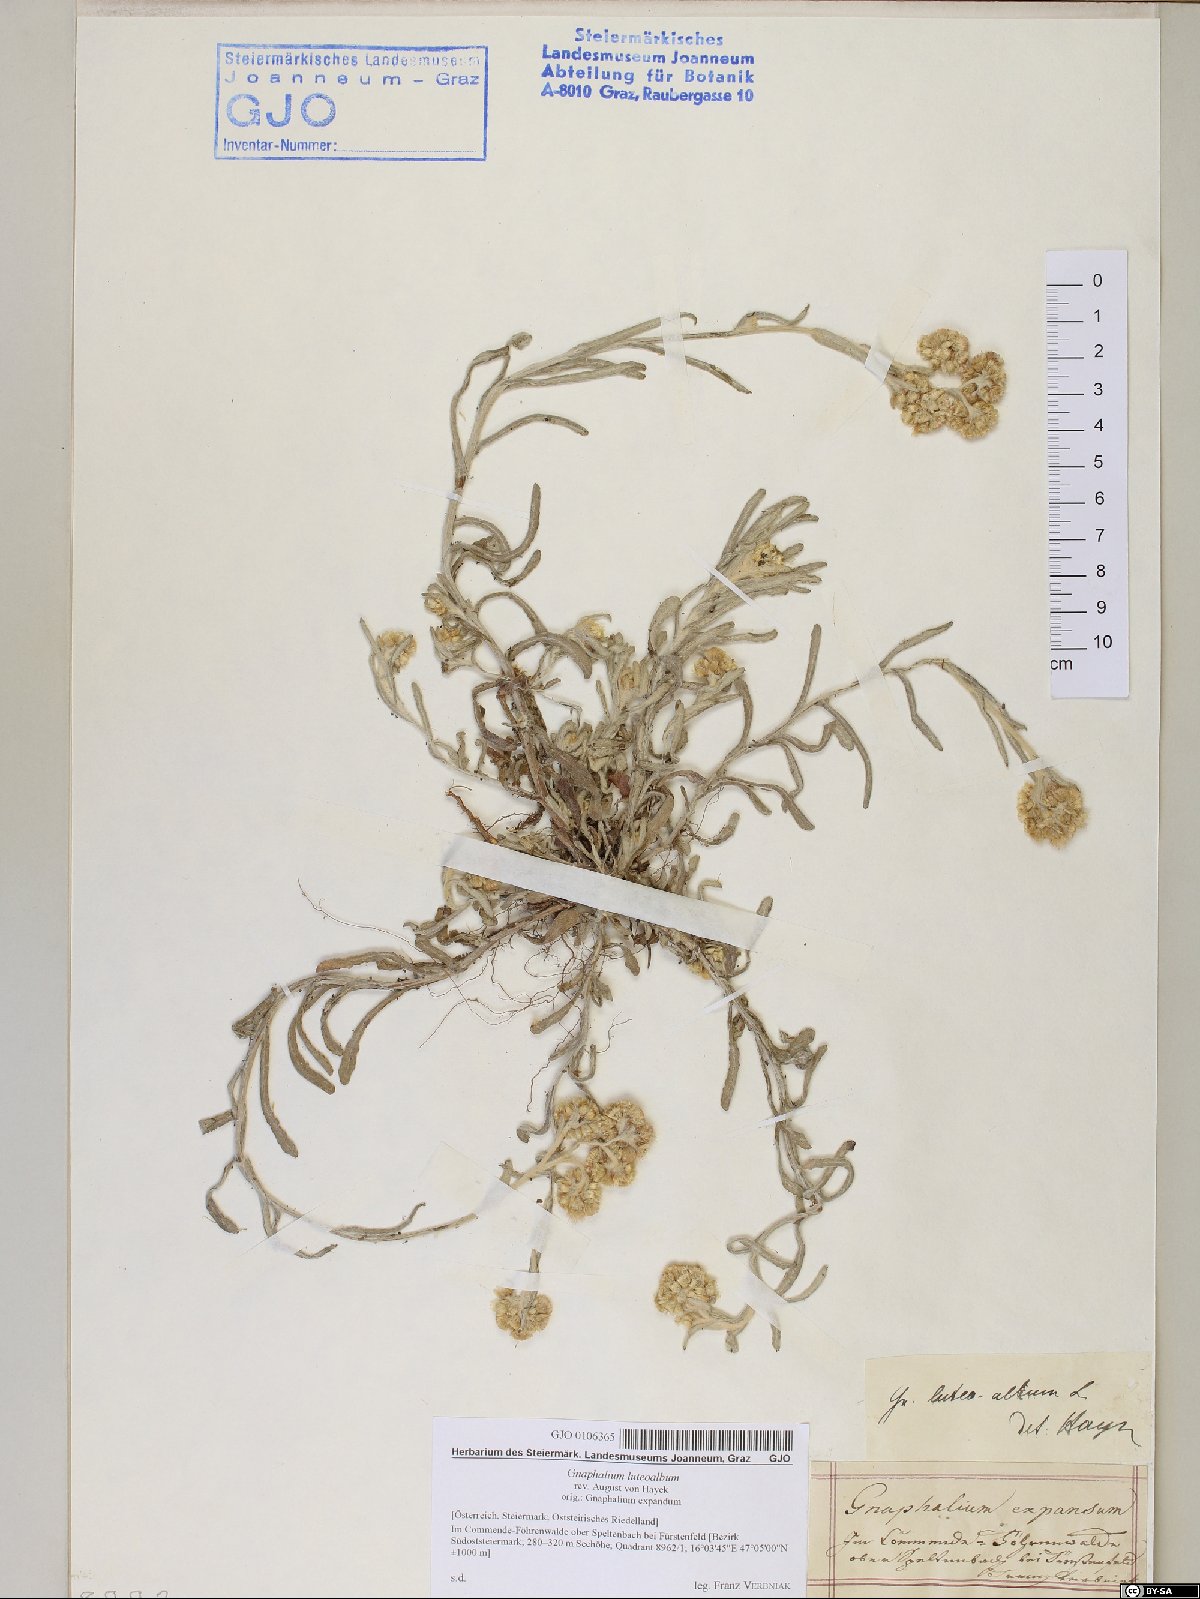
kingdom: Plantae
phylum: Tracheophyta
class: Magnoliopsida
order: Asterales
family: Asteraceae
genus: Helichrysum
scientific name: Helichrysum luteoalbum
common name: Daisy
